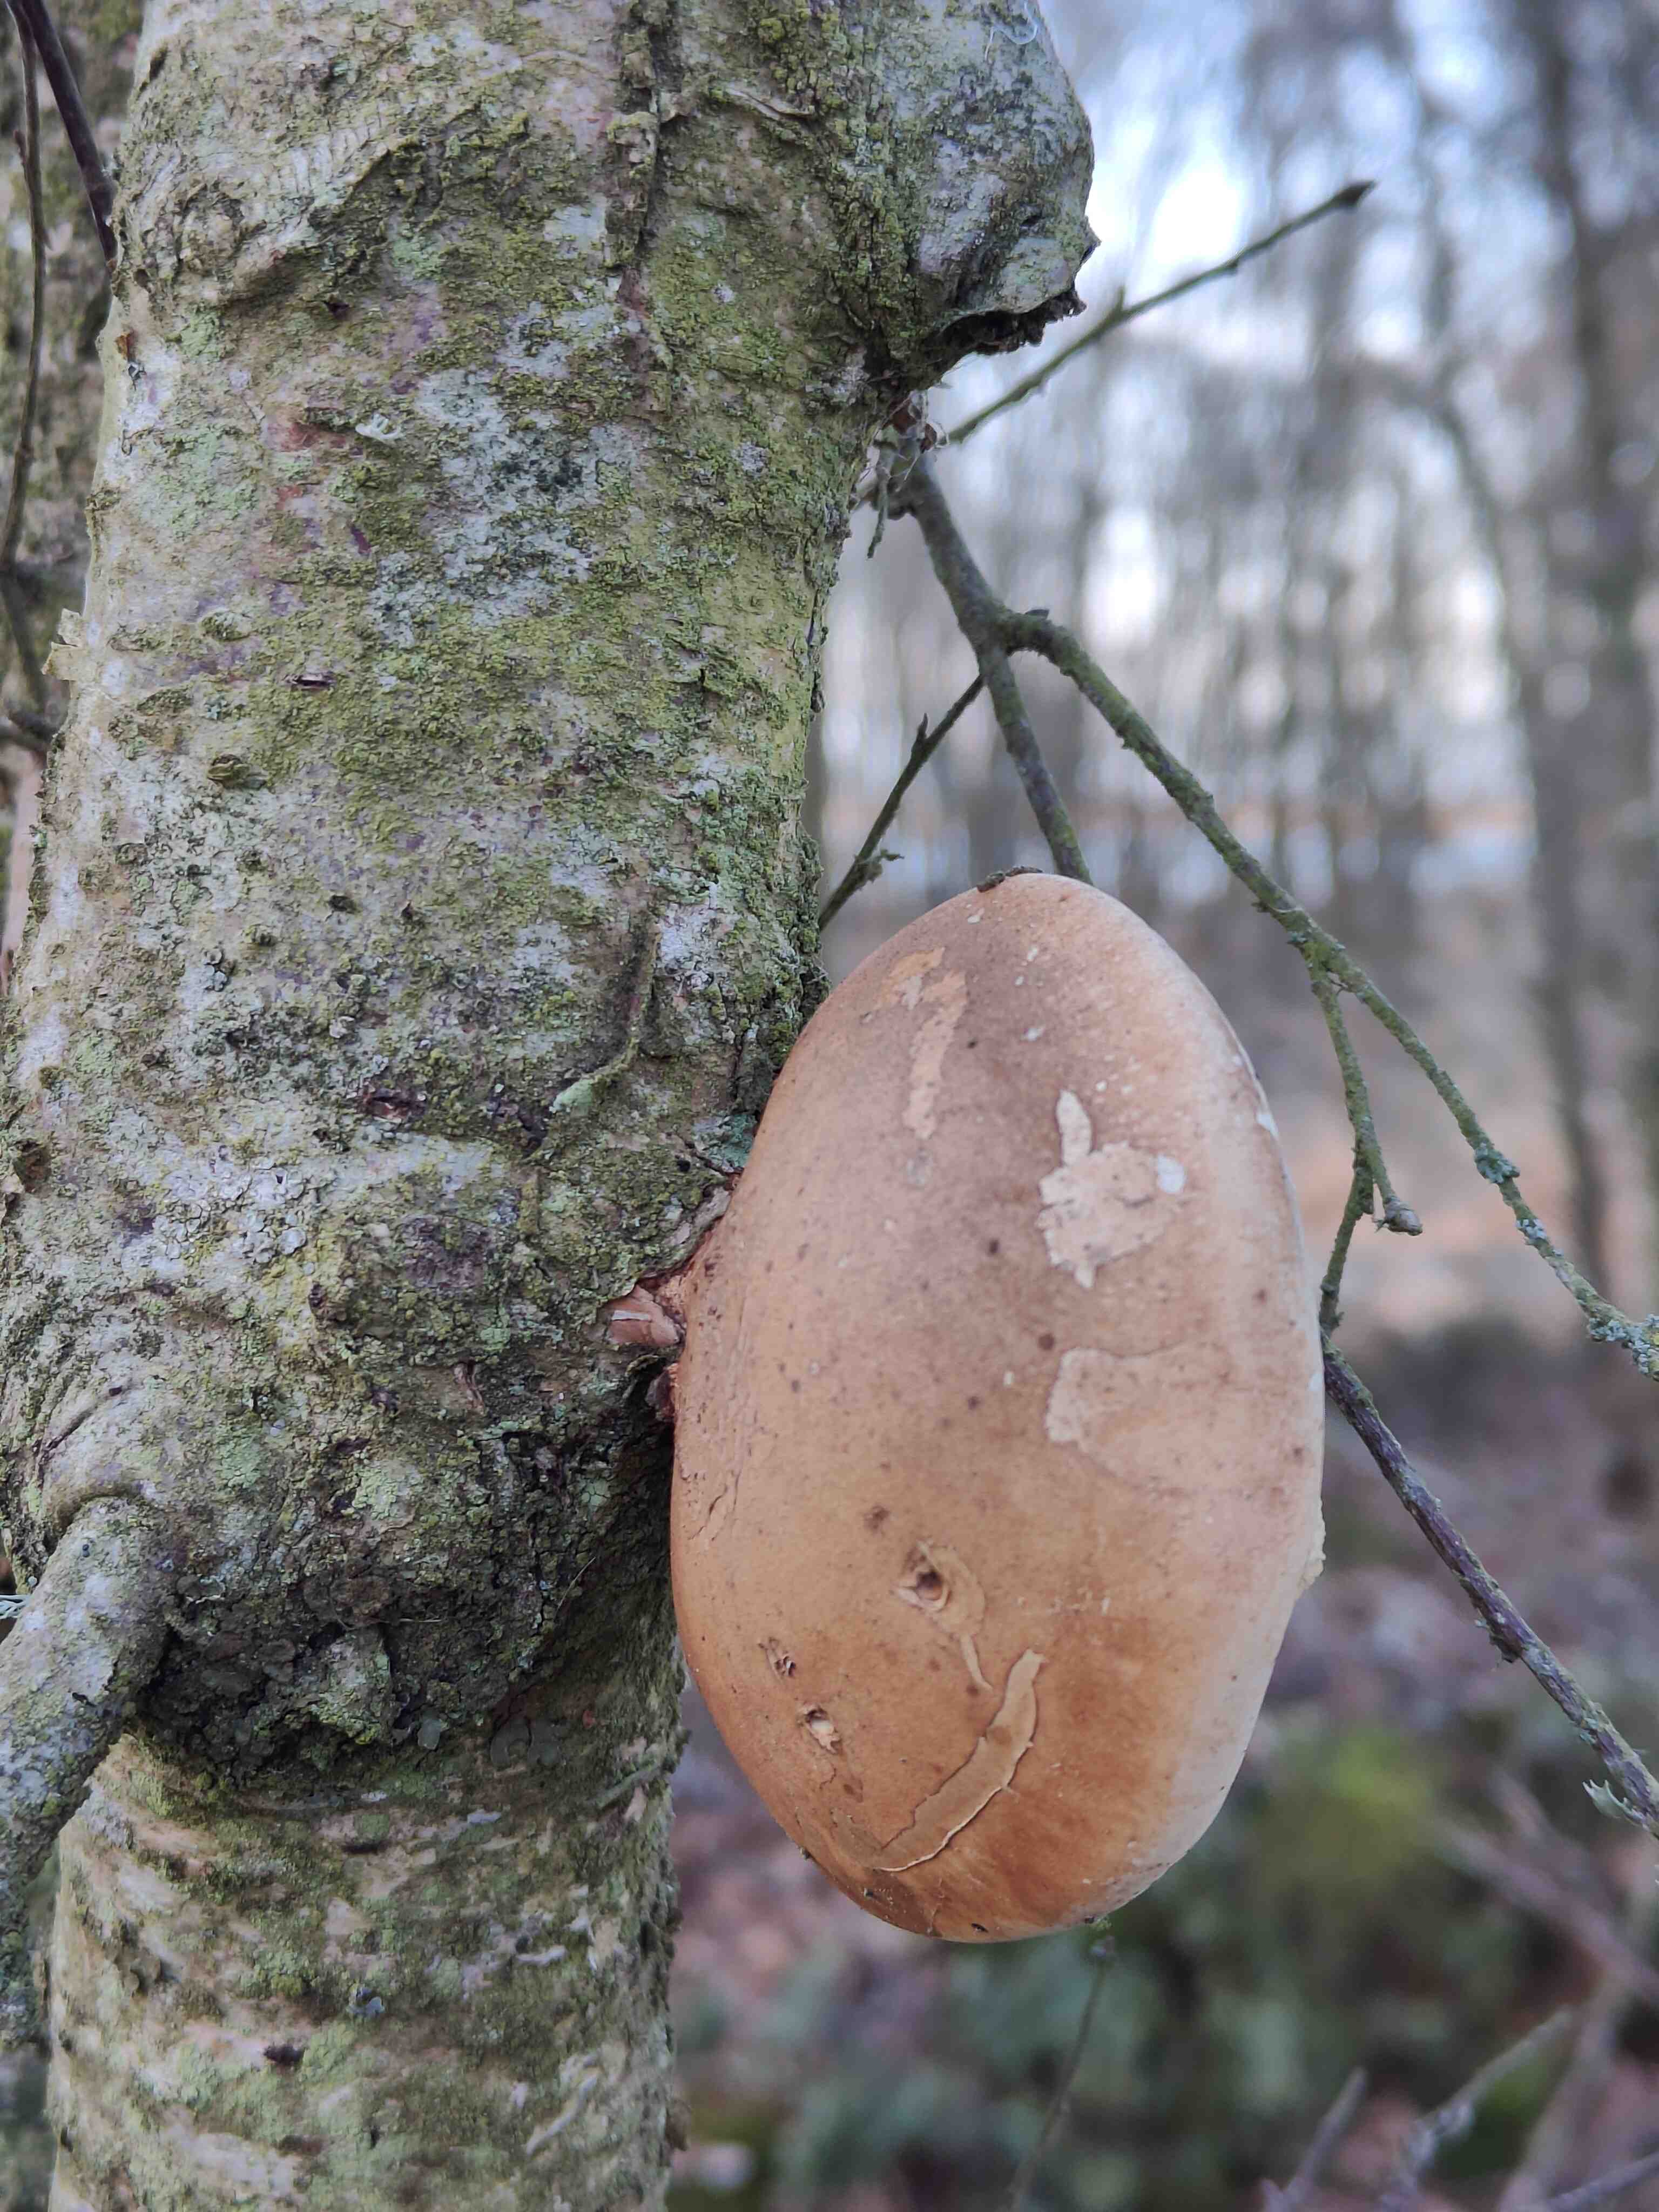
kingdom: Fungi
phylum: Basidiomycota
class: Agaricomycetes
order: Polyporales
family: Fomitopsidaceae
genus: Fomitopsis
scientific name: Fomitopsis betulina
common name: birkeporesvamp
